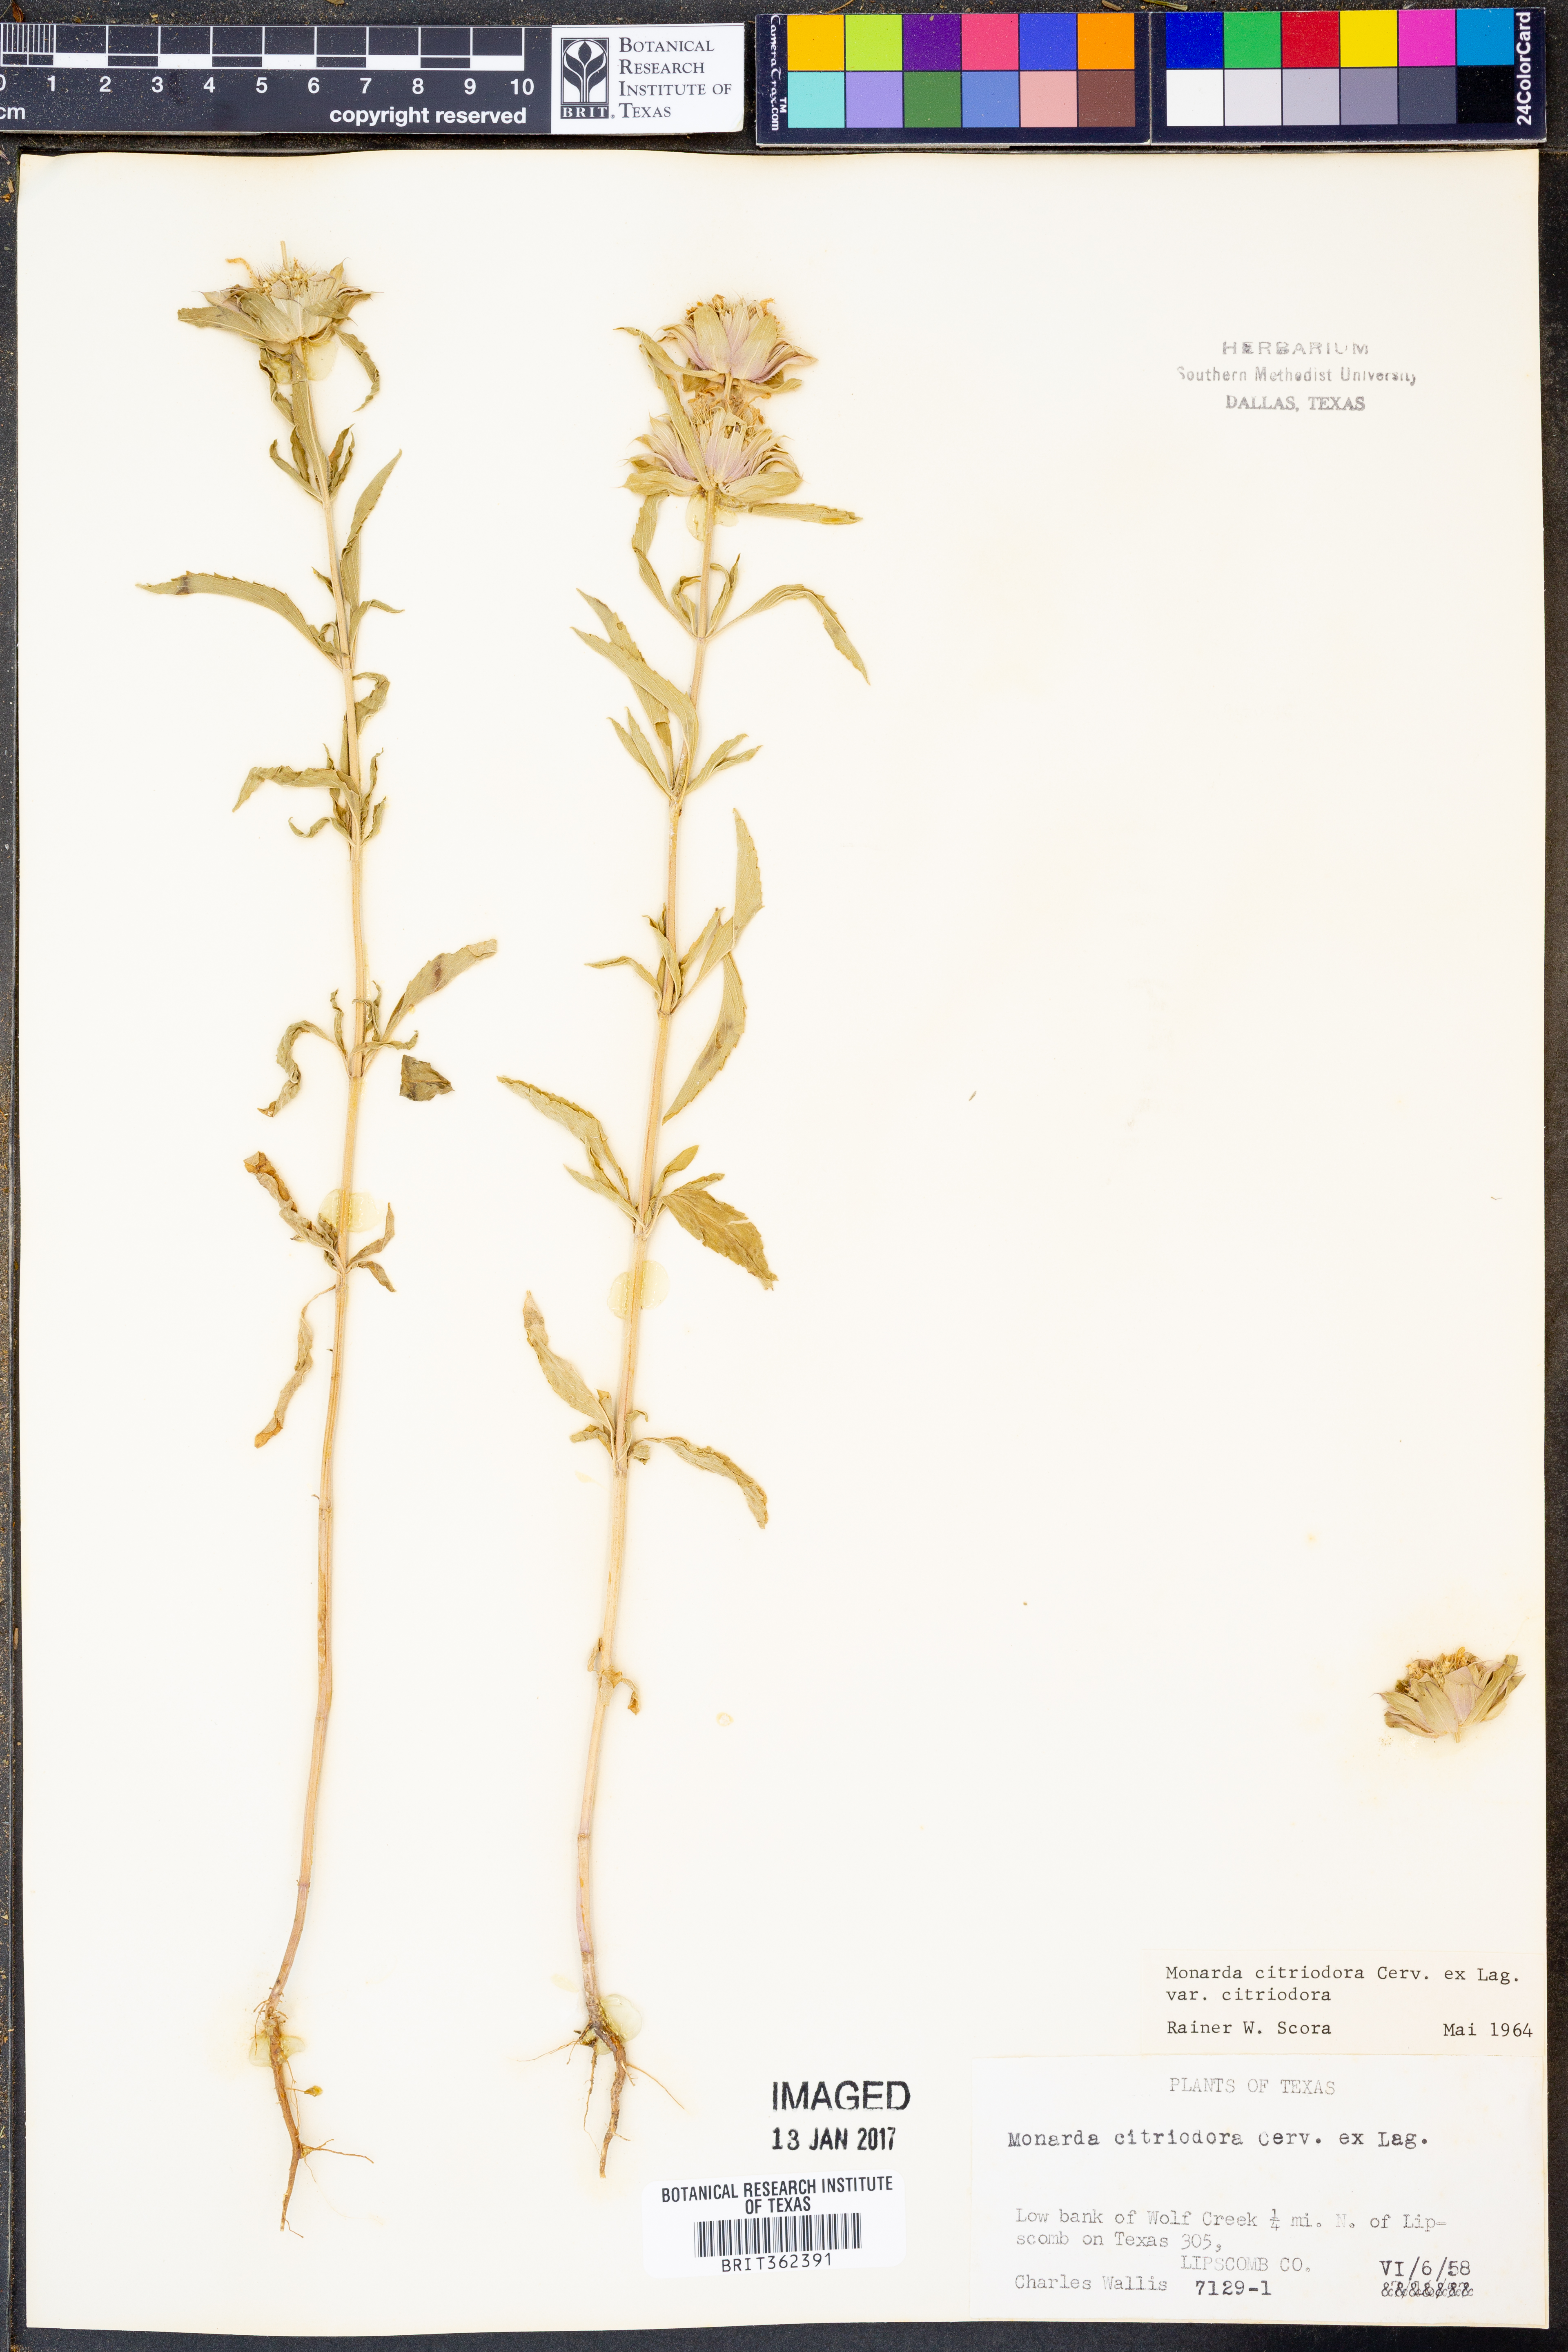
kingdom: Plantae
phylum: Tracheophyta
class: Magnoliopsida
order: Lamiales
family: Lamiaceae
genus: Monarda
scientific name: Monarda citriodora
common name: Lemon beebalm
